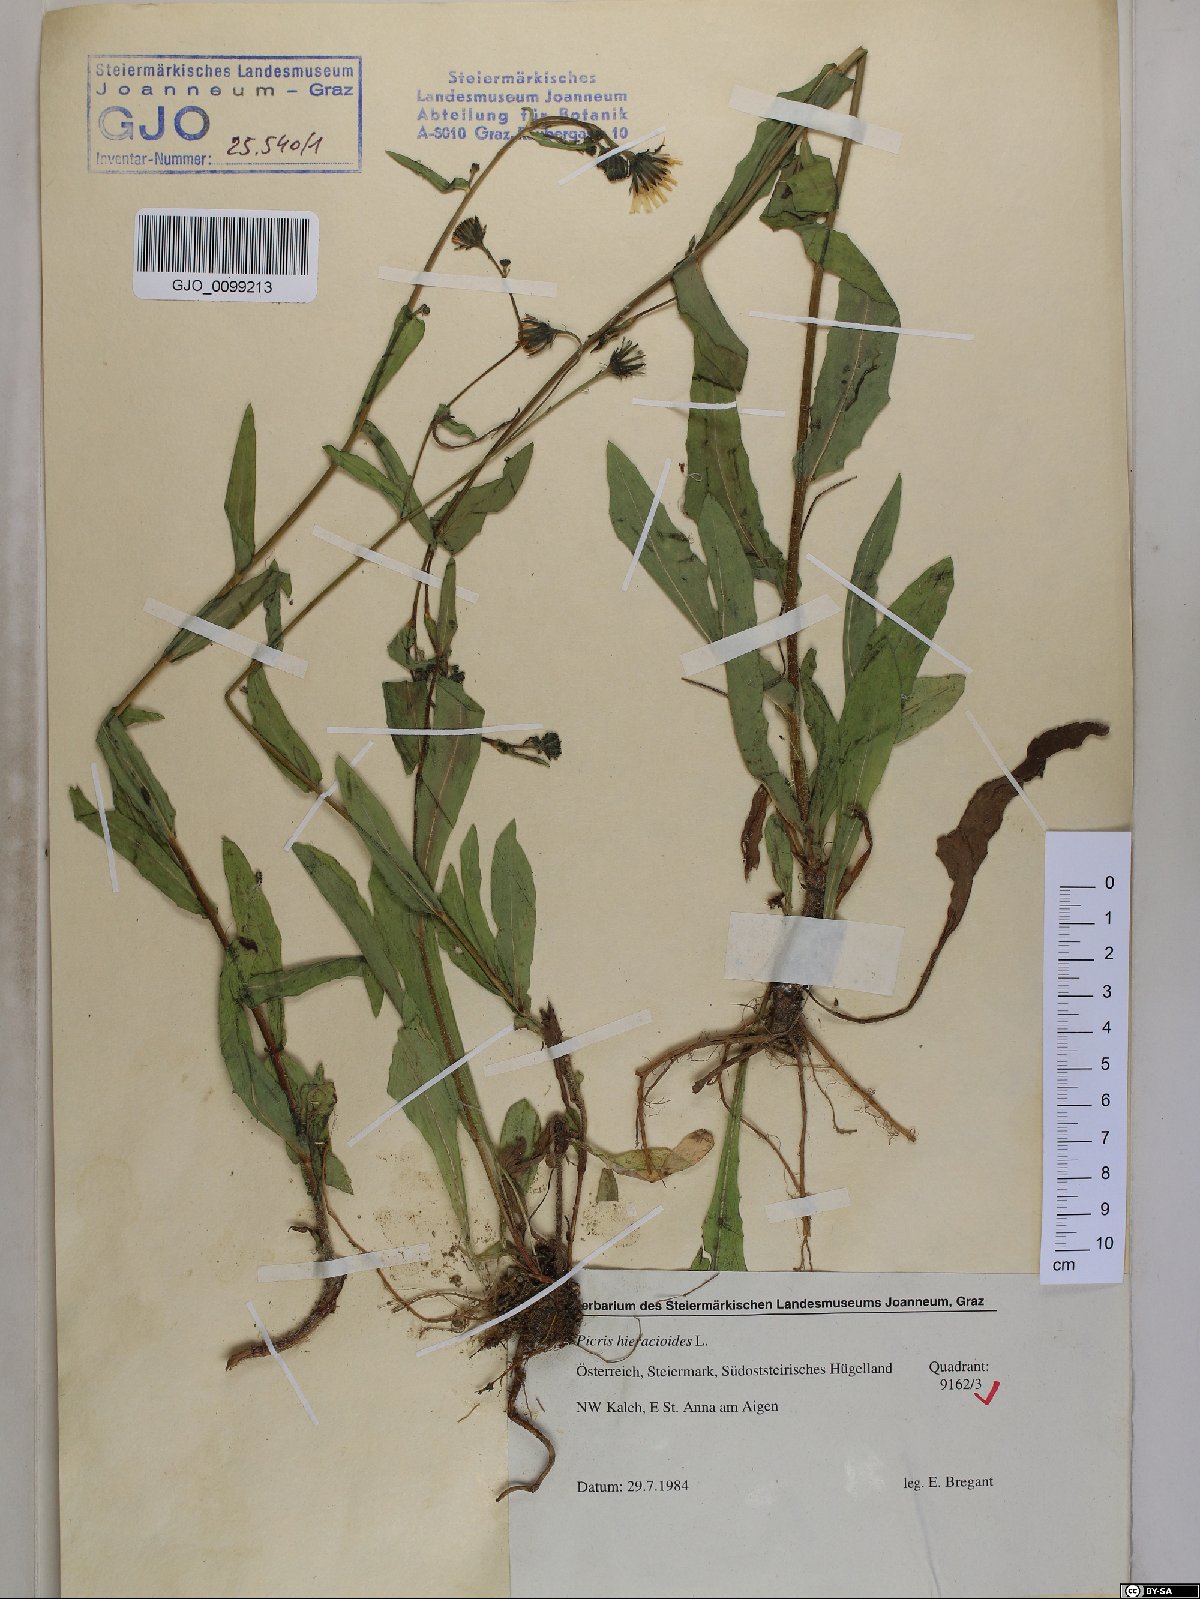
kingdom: Plantae
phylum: Tracheophyta
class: Magnoliopsida
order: Asterales
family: Asteraceae
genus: Picris
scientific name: Picris hieracioides
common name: Hawkweed oxtongue
